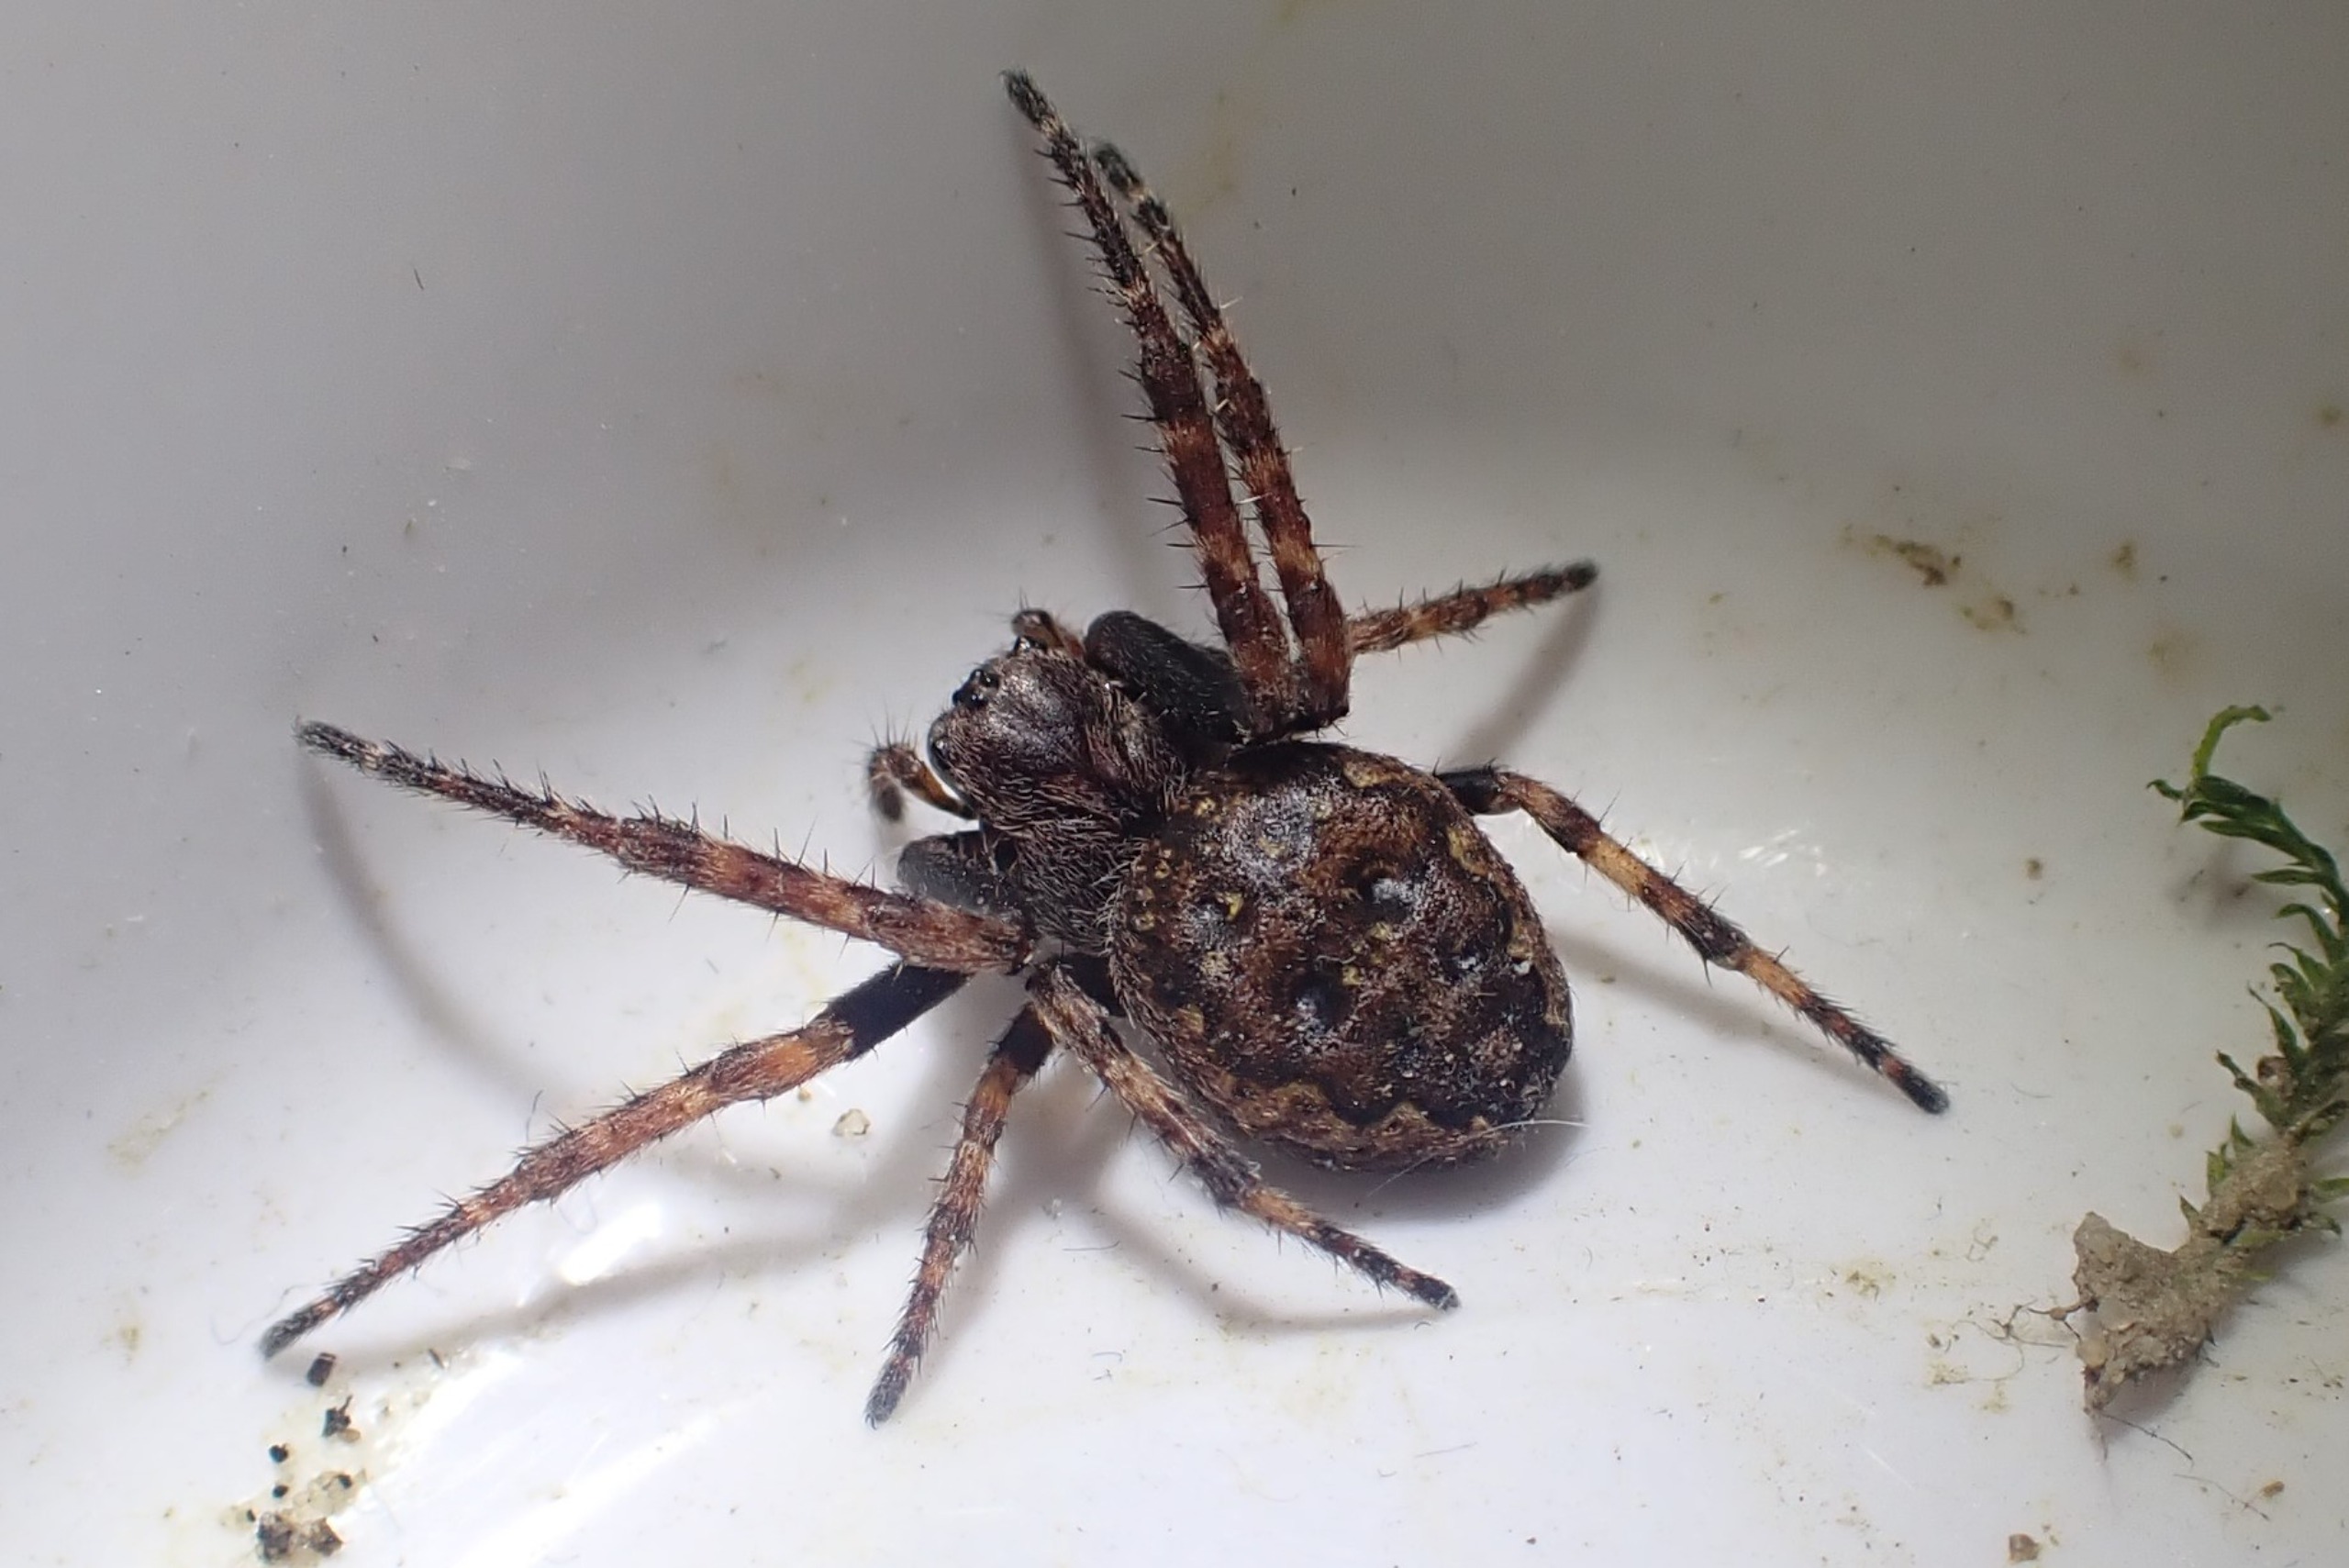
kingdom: Animalia
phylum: Arthropoda
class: Arachnida
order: Araneae
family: Araneidae
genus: Nuctenea
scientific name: Nuctenea umbratica
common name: Flad hjulspinder
